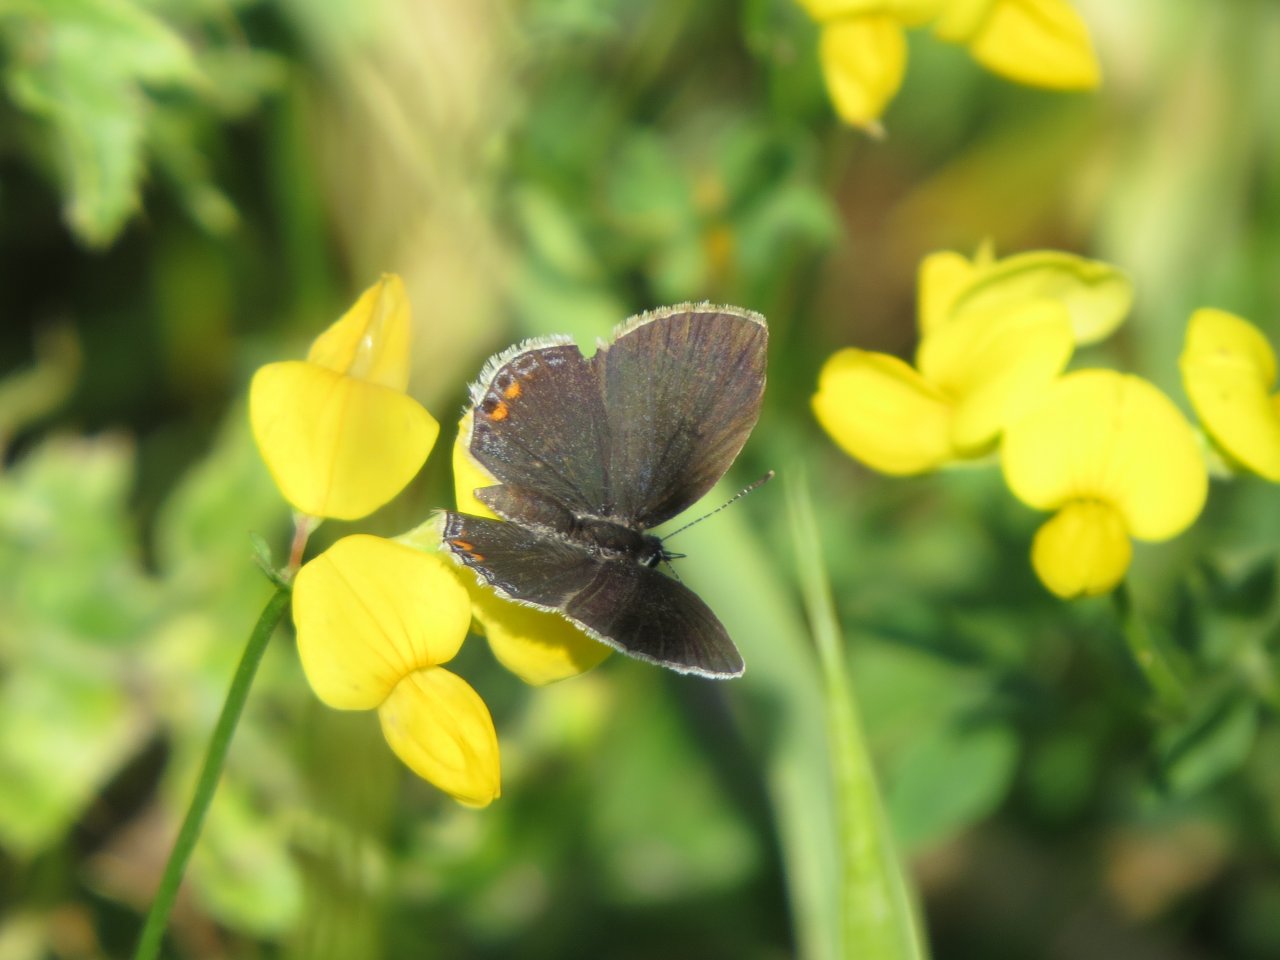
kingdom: Animalia
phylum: Arthropoda
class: Insecta
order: Lepidoptera
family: Lycaenidae
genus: Elkalyce
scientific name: Elkalyce comyntas
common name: Eastern Tailed-Blue
